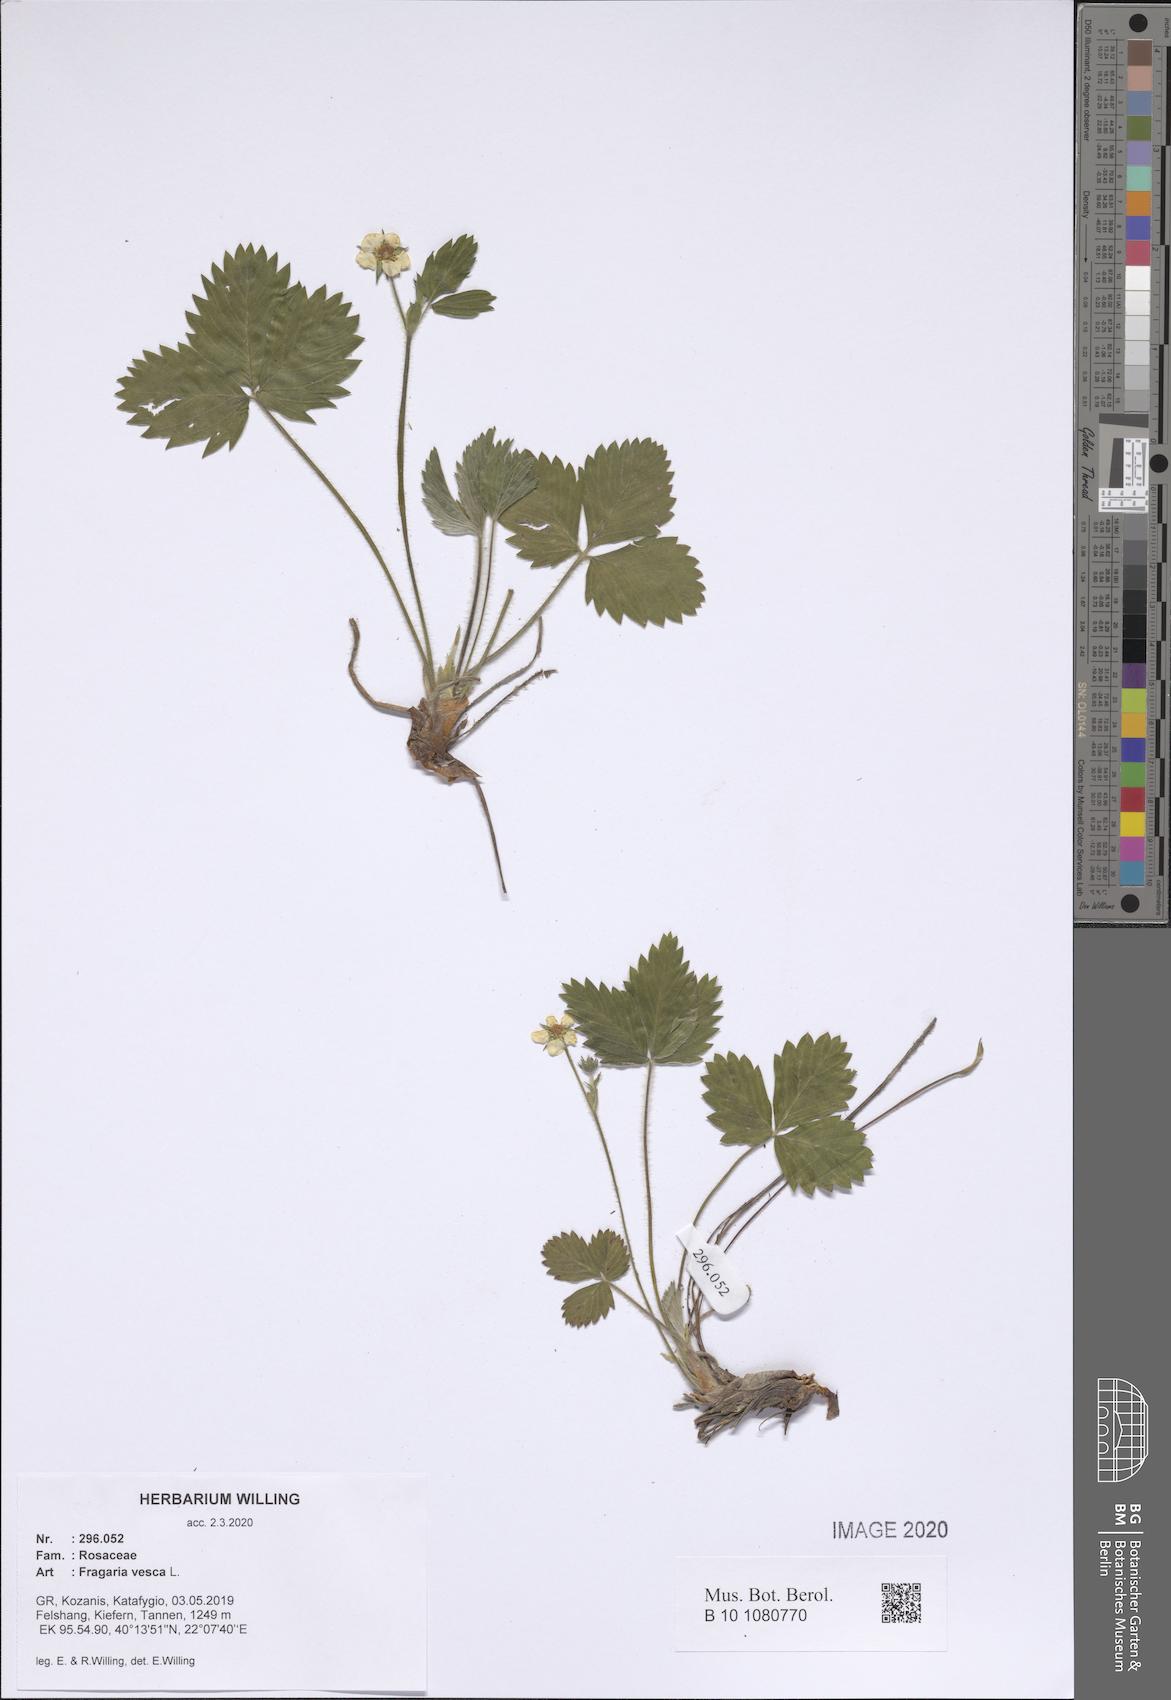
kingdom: Plantae
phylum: Tracheophyta
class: Magnoliopsida
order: Rosales
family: Rosaceae
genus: Fragaria
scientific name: Fragaria vesca
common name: Wild strawberry
